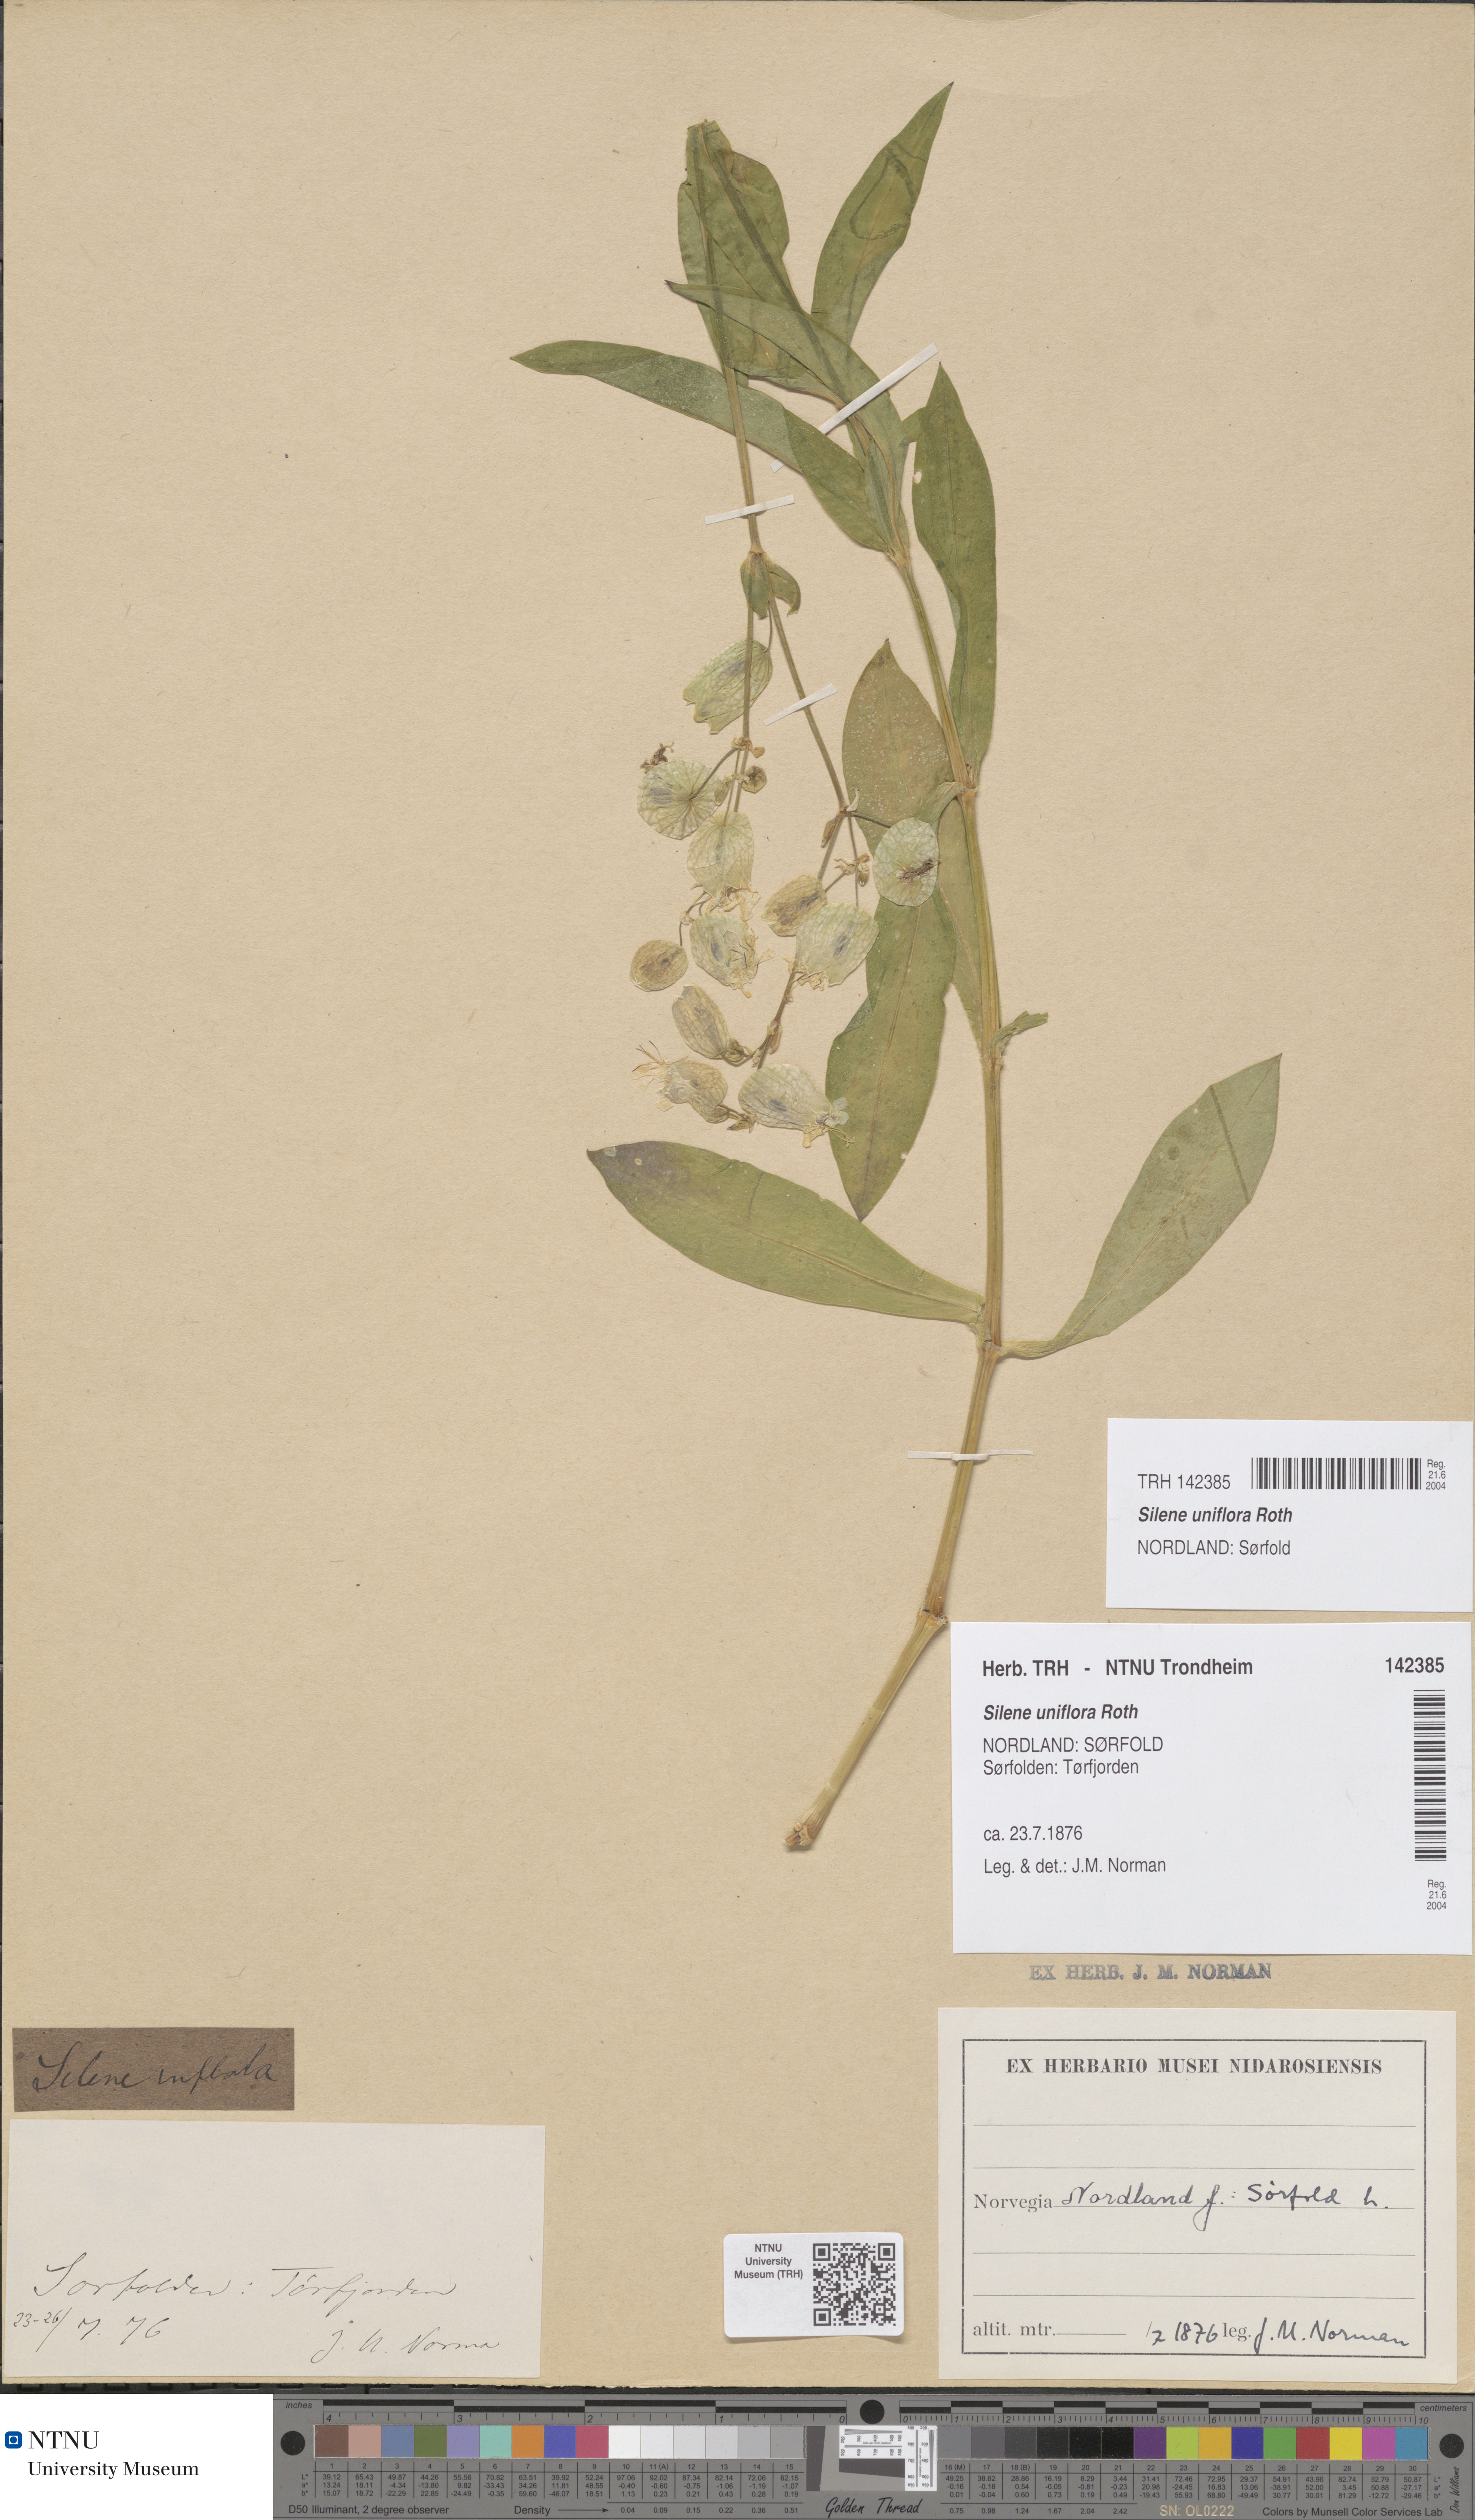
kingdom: Plantae
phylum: Tracheophyta
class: Magnoliopsida
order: Caryophyllales
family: Caryophyllaceae
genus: Silene
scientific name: Silene uniflora
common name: Sea campion
